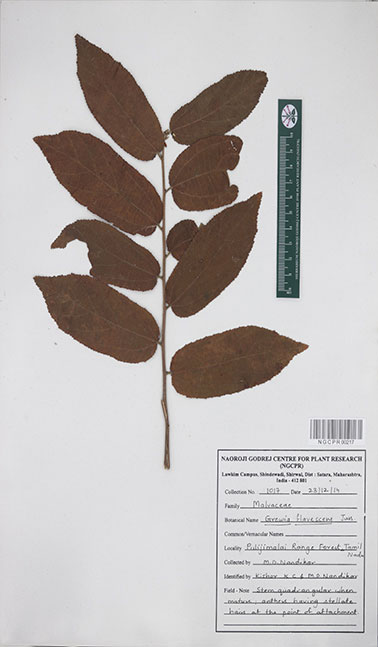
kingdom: Plantae
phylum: Tracheophyta
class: Magnoliopsida
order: Malvales
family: Malvaceae
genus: Grewia
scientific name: Grewia flavescens
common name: Sandpaper raisin
